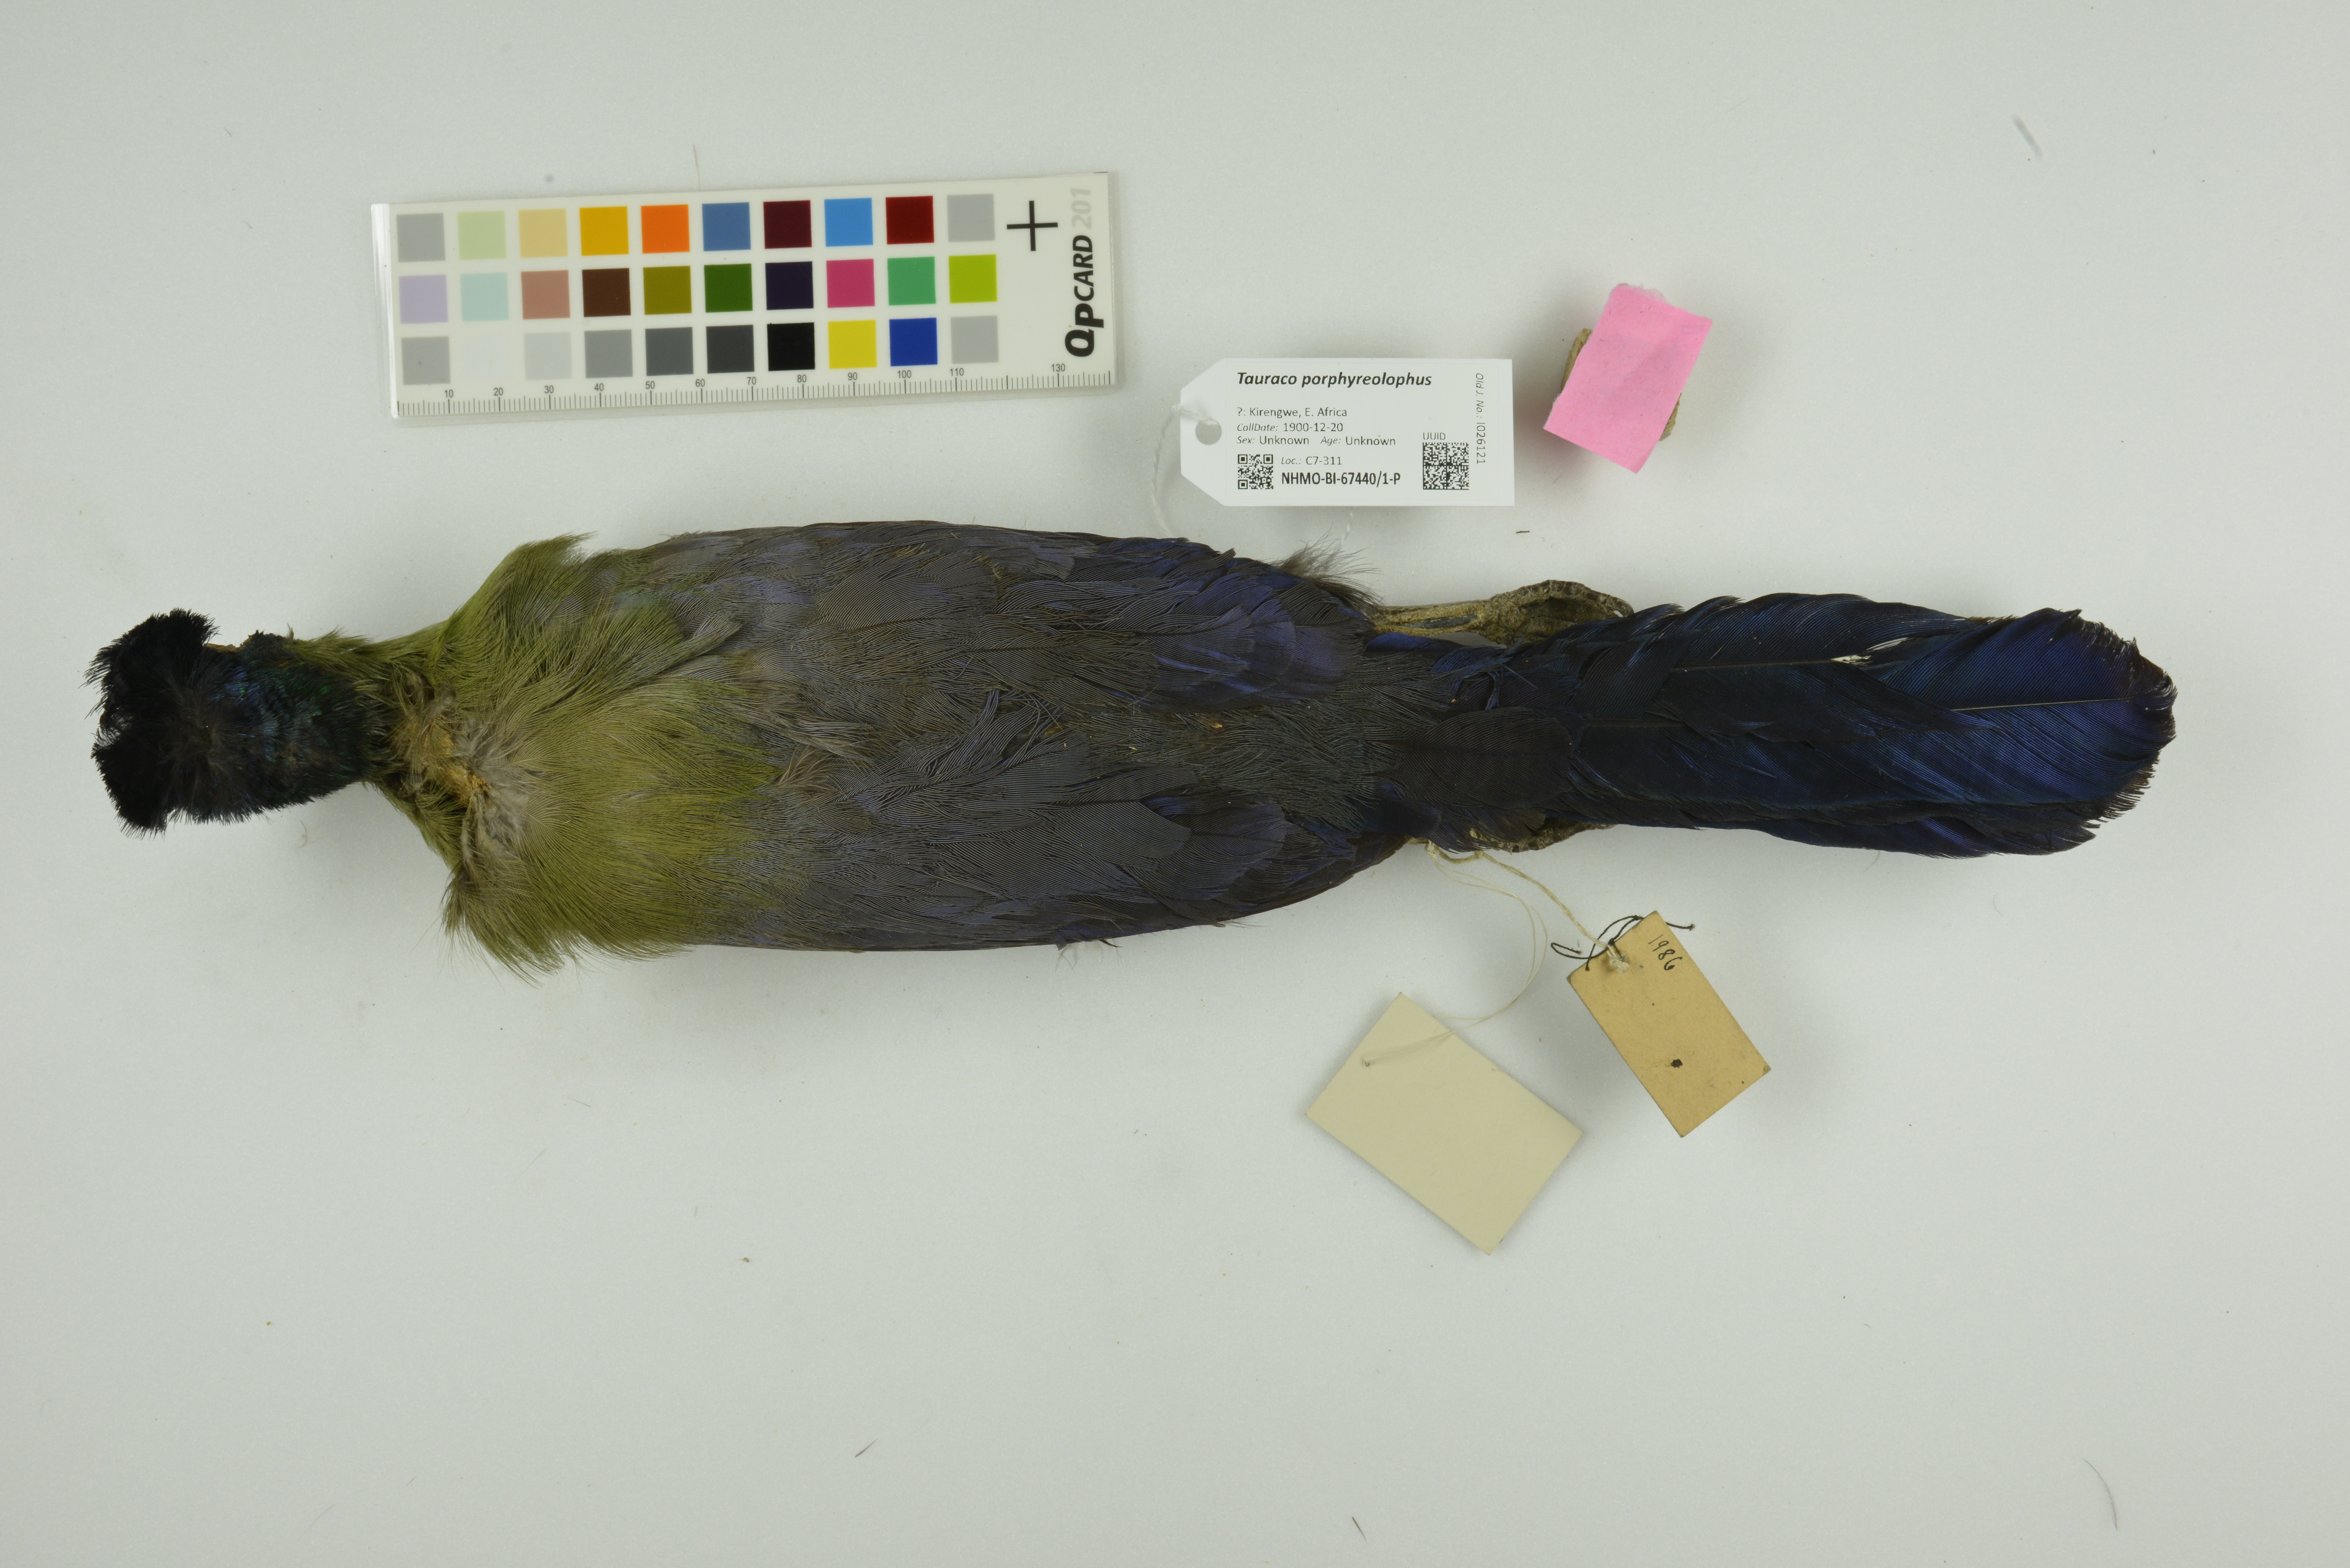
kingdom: Animalia
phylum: Chordata
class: Aves
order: Musophagiformes
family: Musophagidae
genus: Tauraco
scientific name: Tauraco porphyreolophus
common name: Purple-crested turaco
